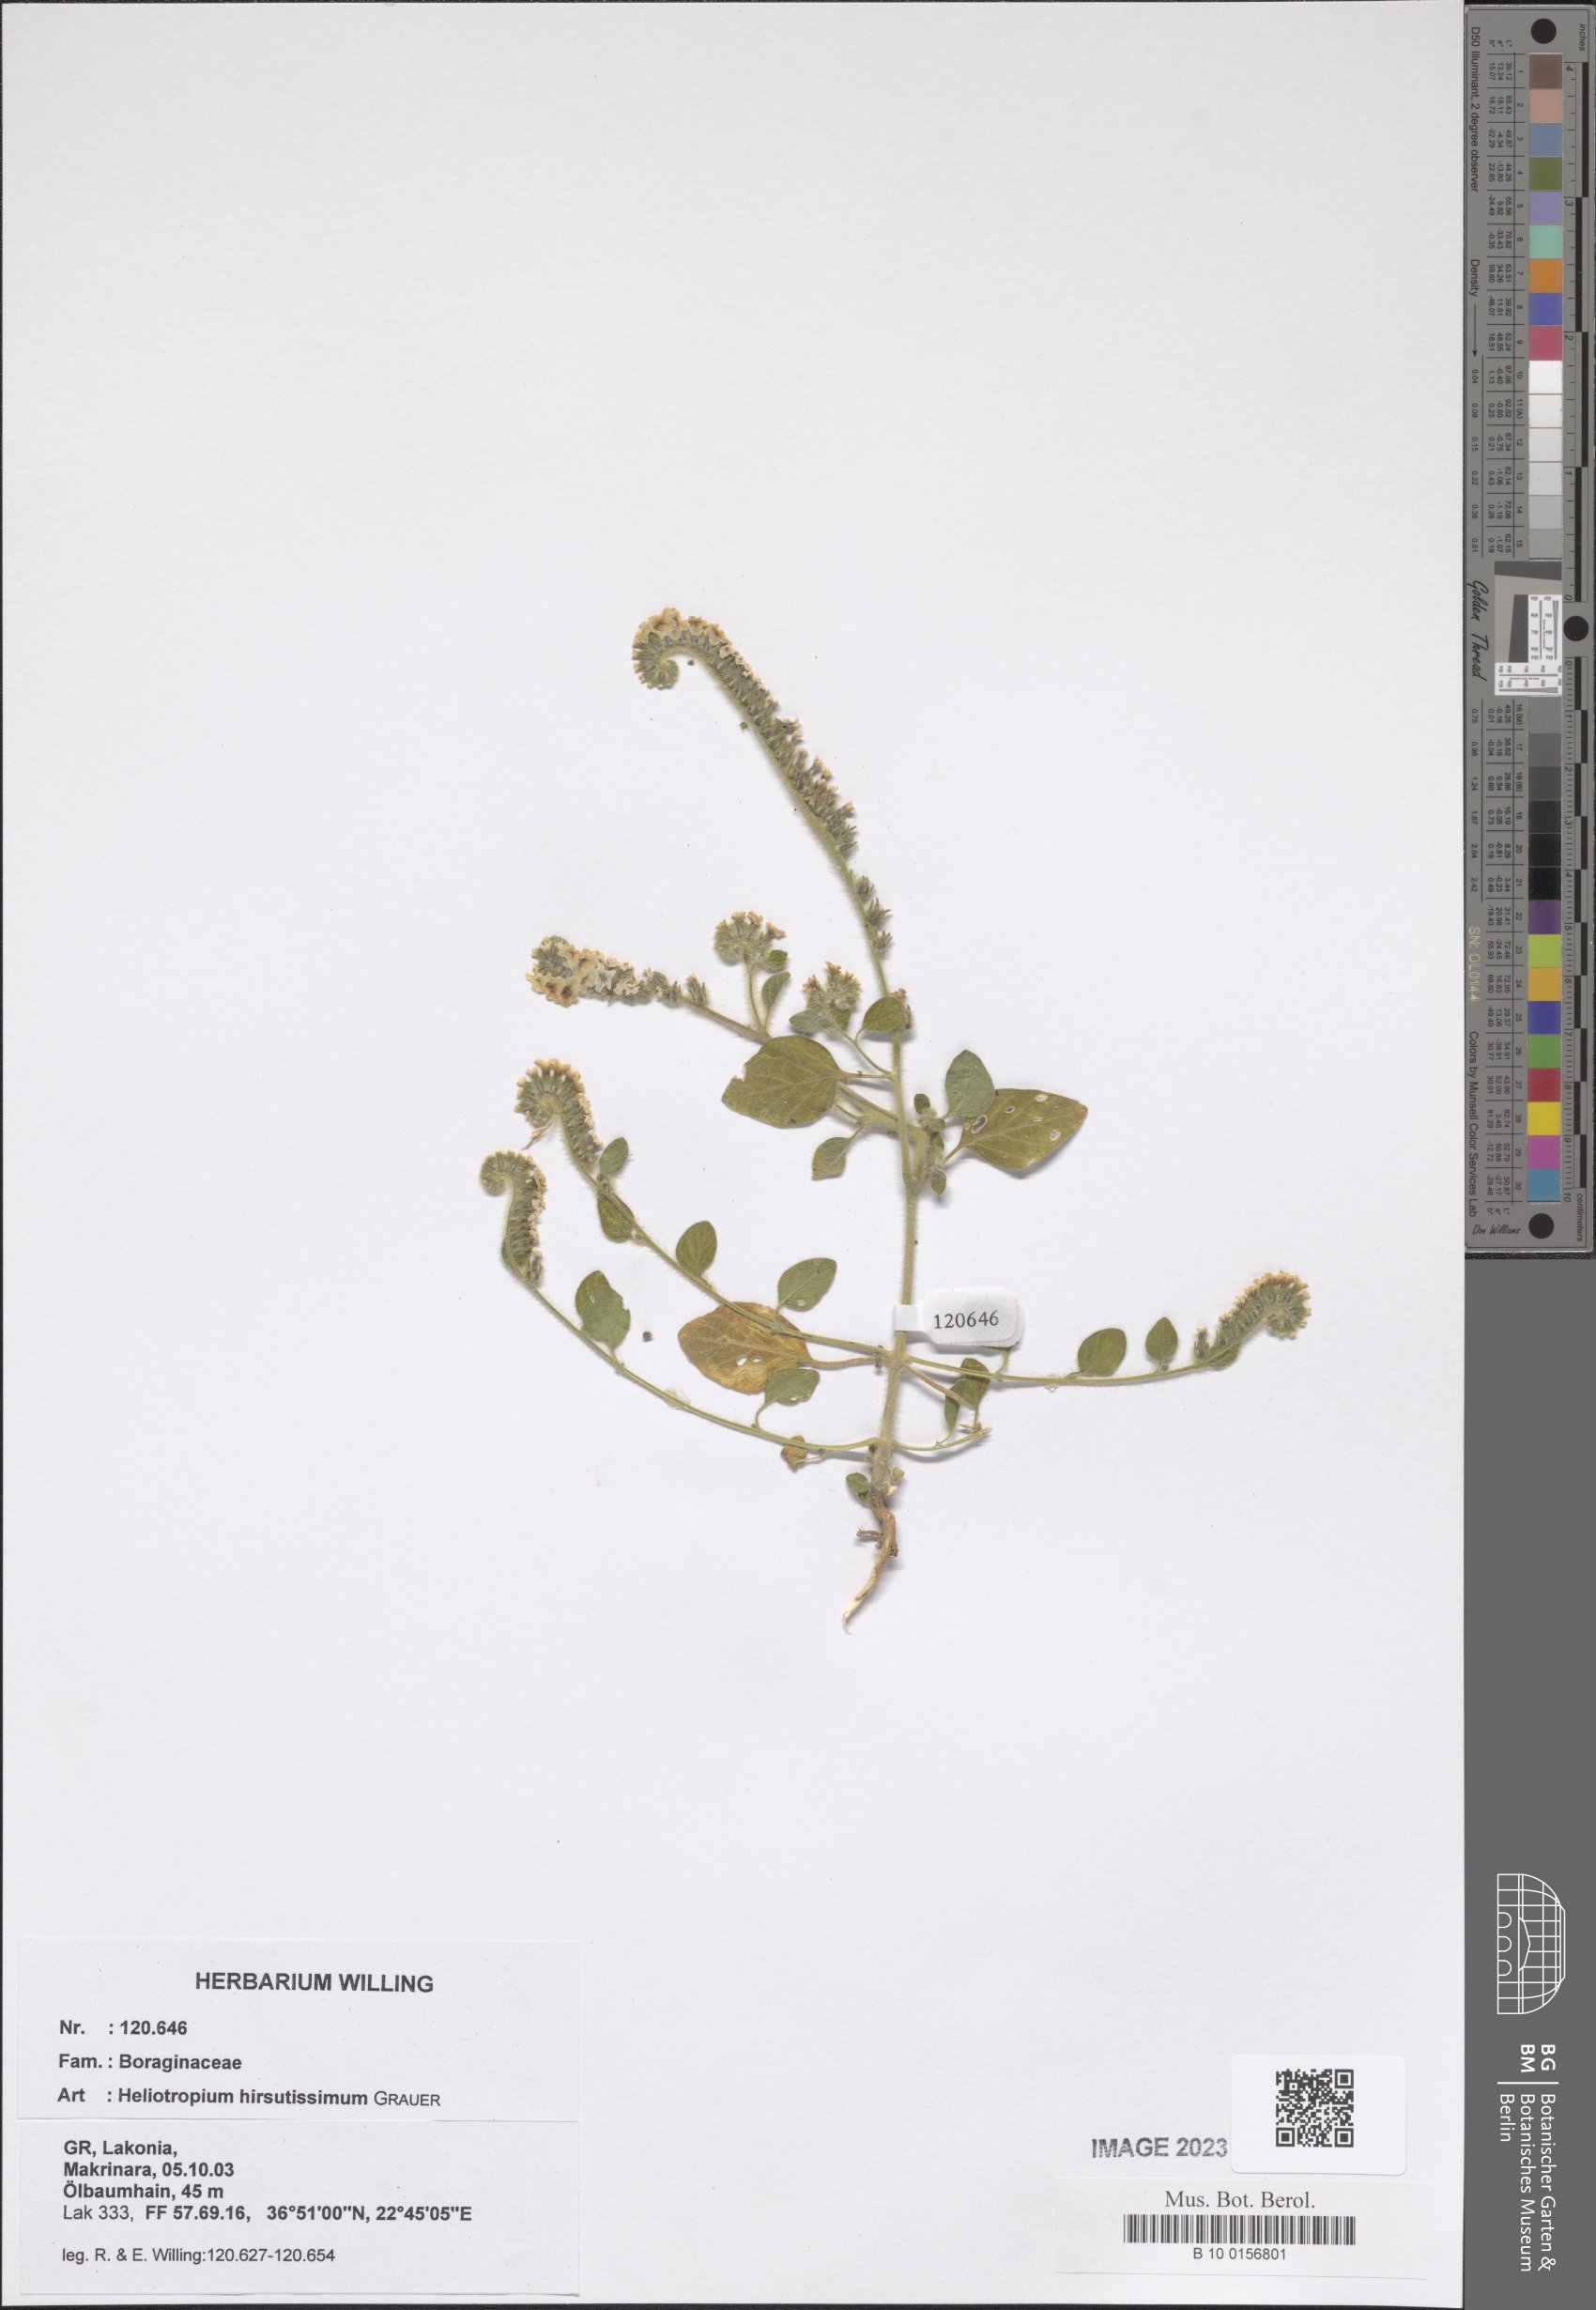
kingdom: Plantae
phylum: Tracheophyta
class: Magnoliopsida
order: Boraginales
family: Heliotropiaceae
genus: Heliotropium
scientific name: Heliotropium hirsutissimum
